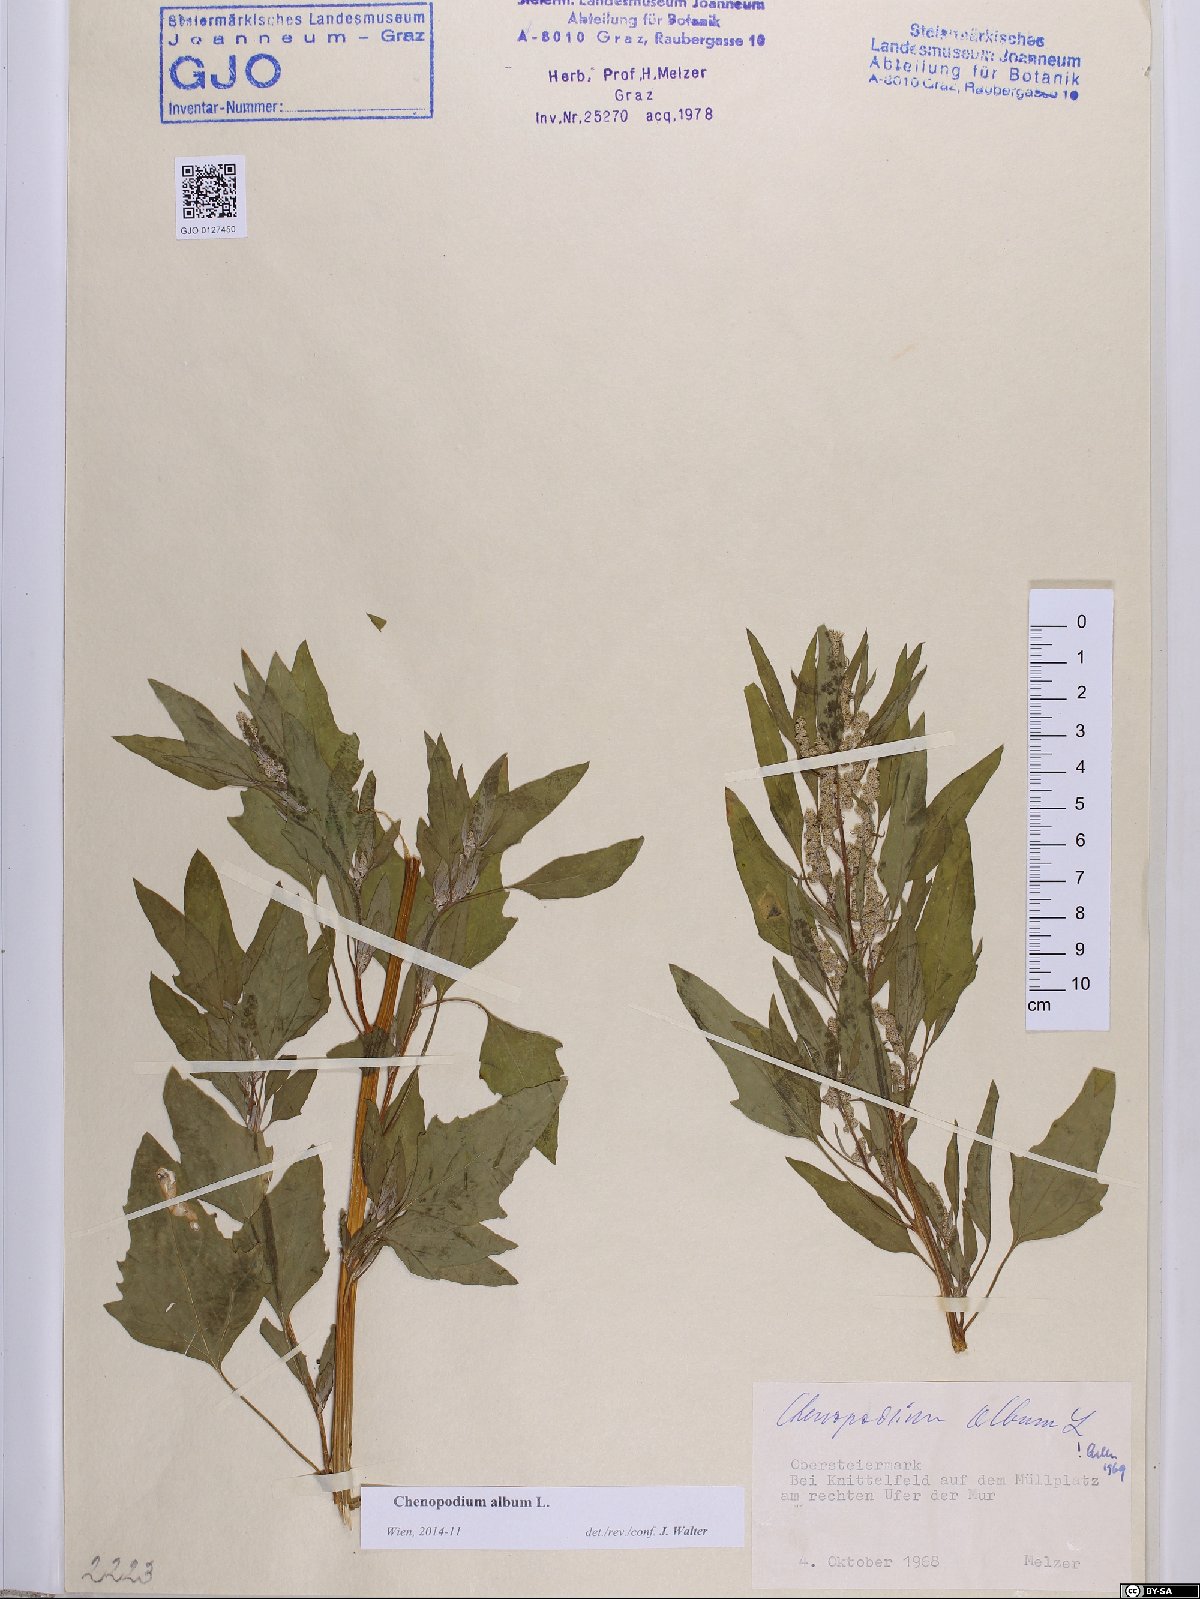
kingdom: Plantae
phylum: Tracheophyta
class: Magnoliopsida
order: Caryophyllales
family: Amaranthaceae
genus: Chenopodium
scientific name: Chenopodium album
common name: Fat-hen
